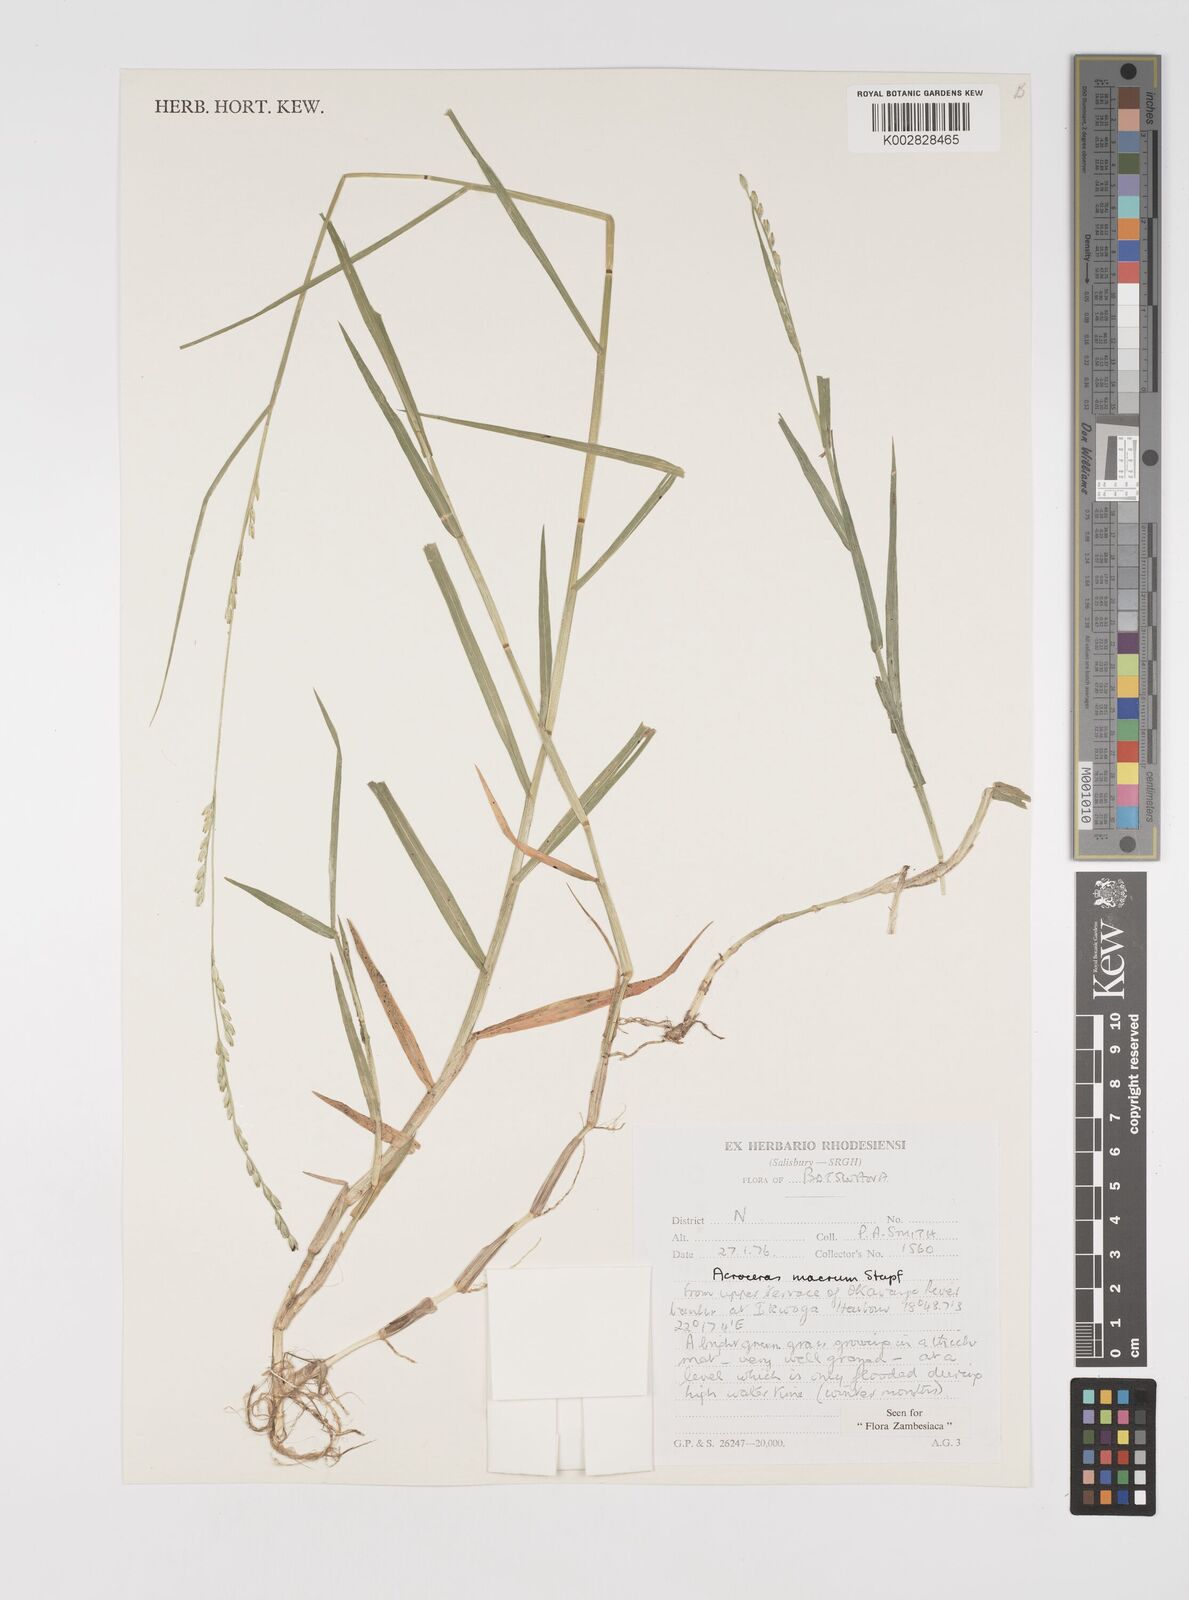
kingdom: Plantae
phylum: Tracheophyta
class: Liliopsida
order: Poales
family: Poaceae
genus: Acroceras
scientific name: Acroceras macrum
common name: Nyl grass
